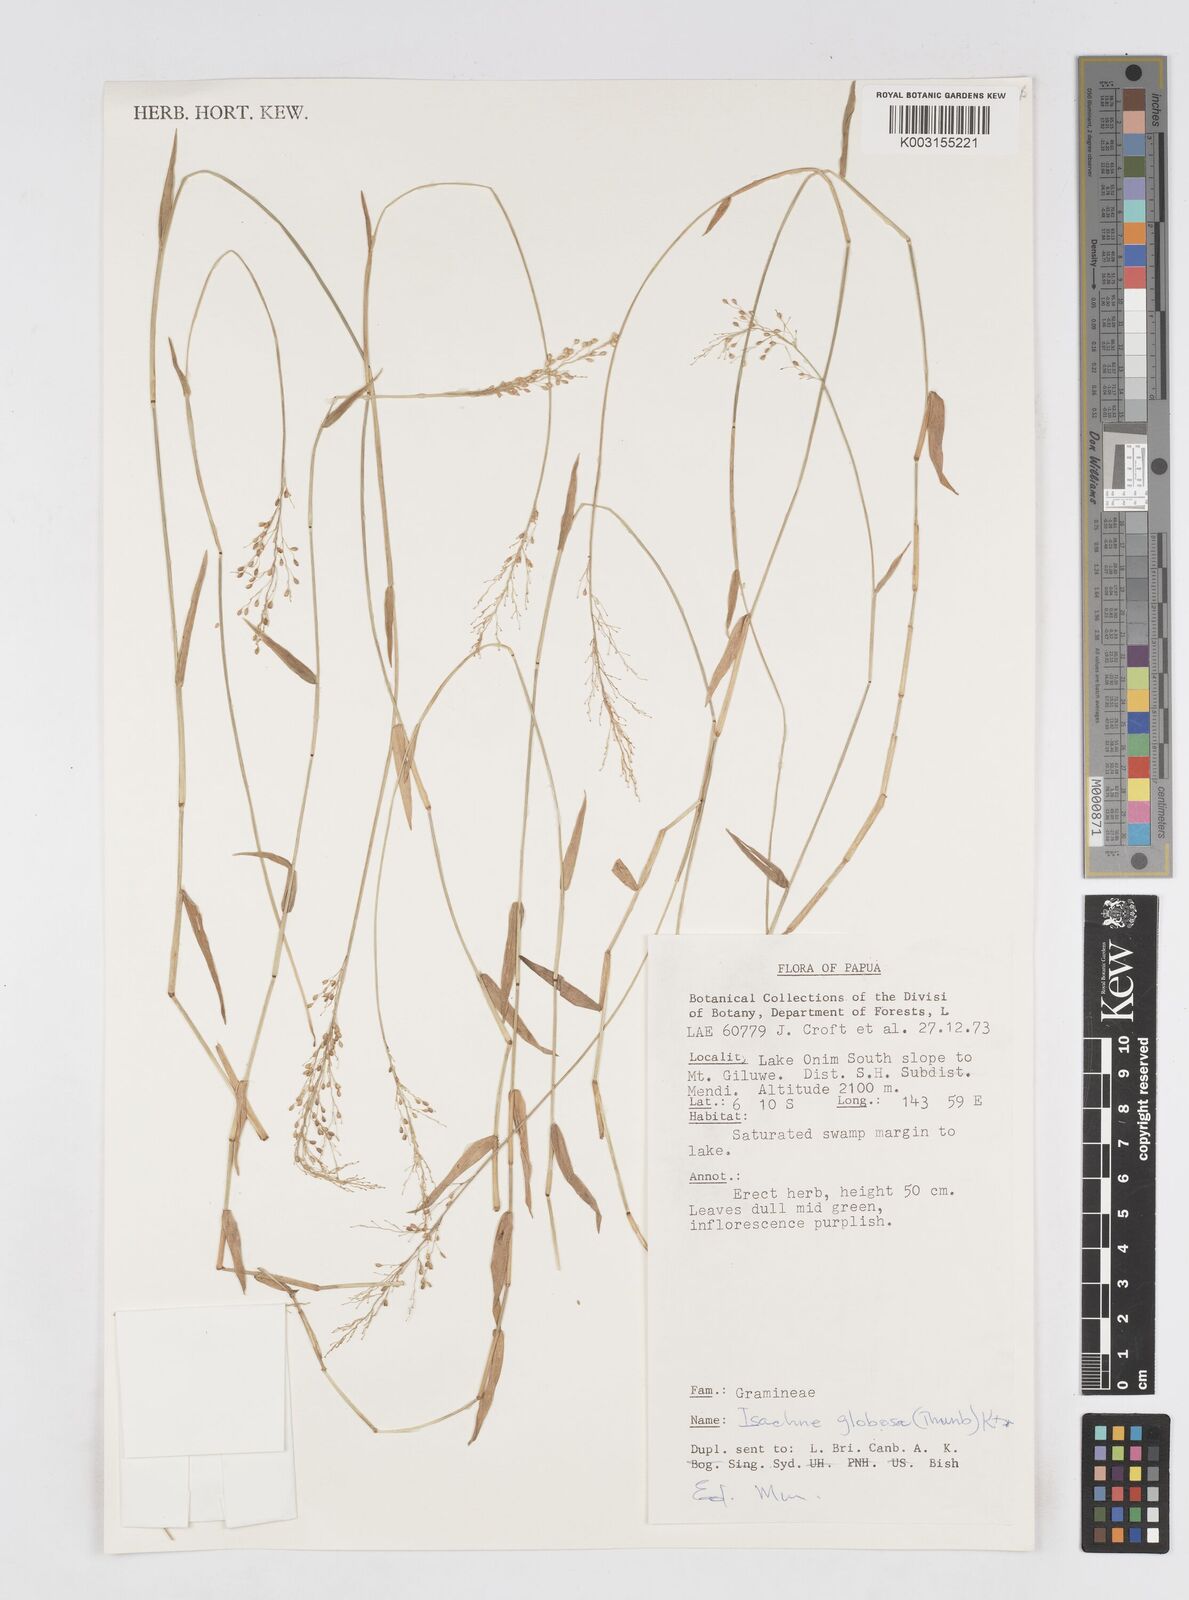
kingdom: Plantae
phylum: Tracheophyta
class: Liliopsida
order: Poales
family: Poaceae
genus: Isachne
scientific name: Isachne globosa
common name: Swamp millet
